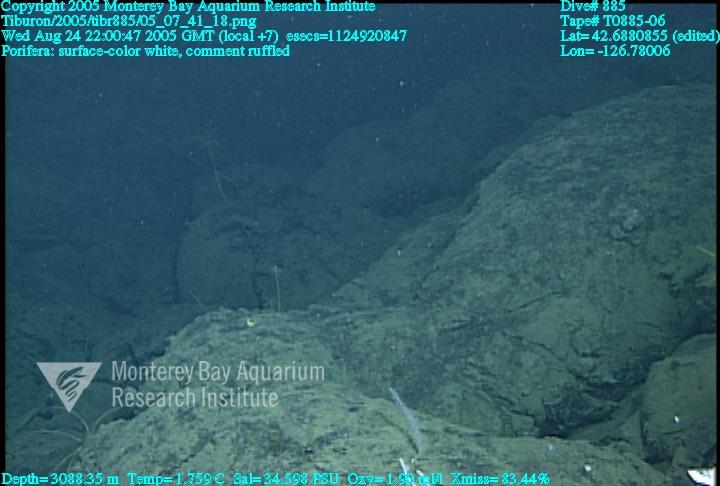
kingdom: Animalia
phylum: Porifera
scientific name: Porifera
